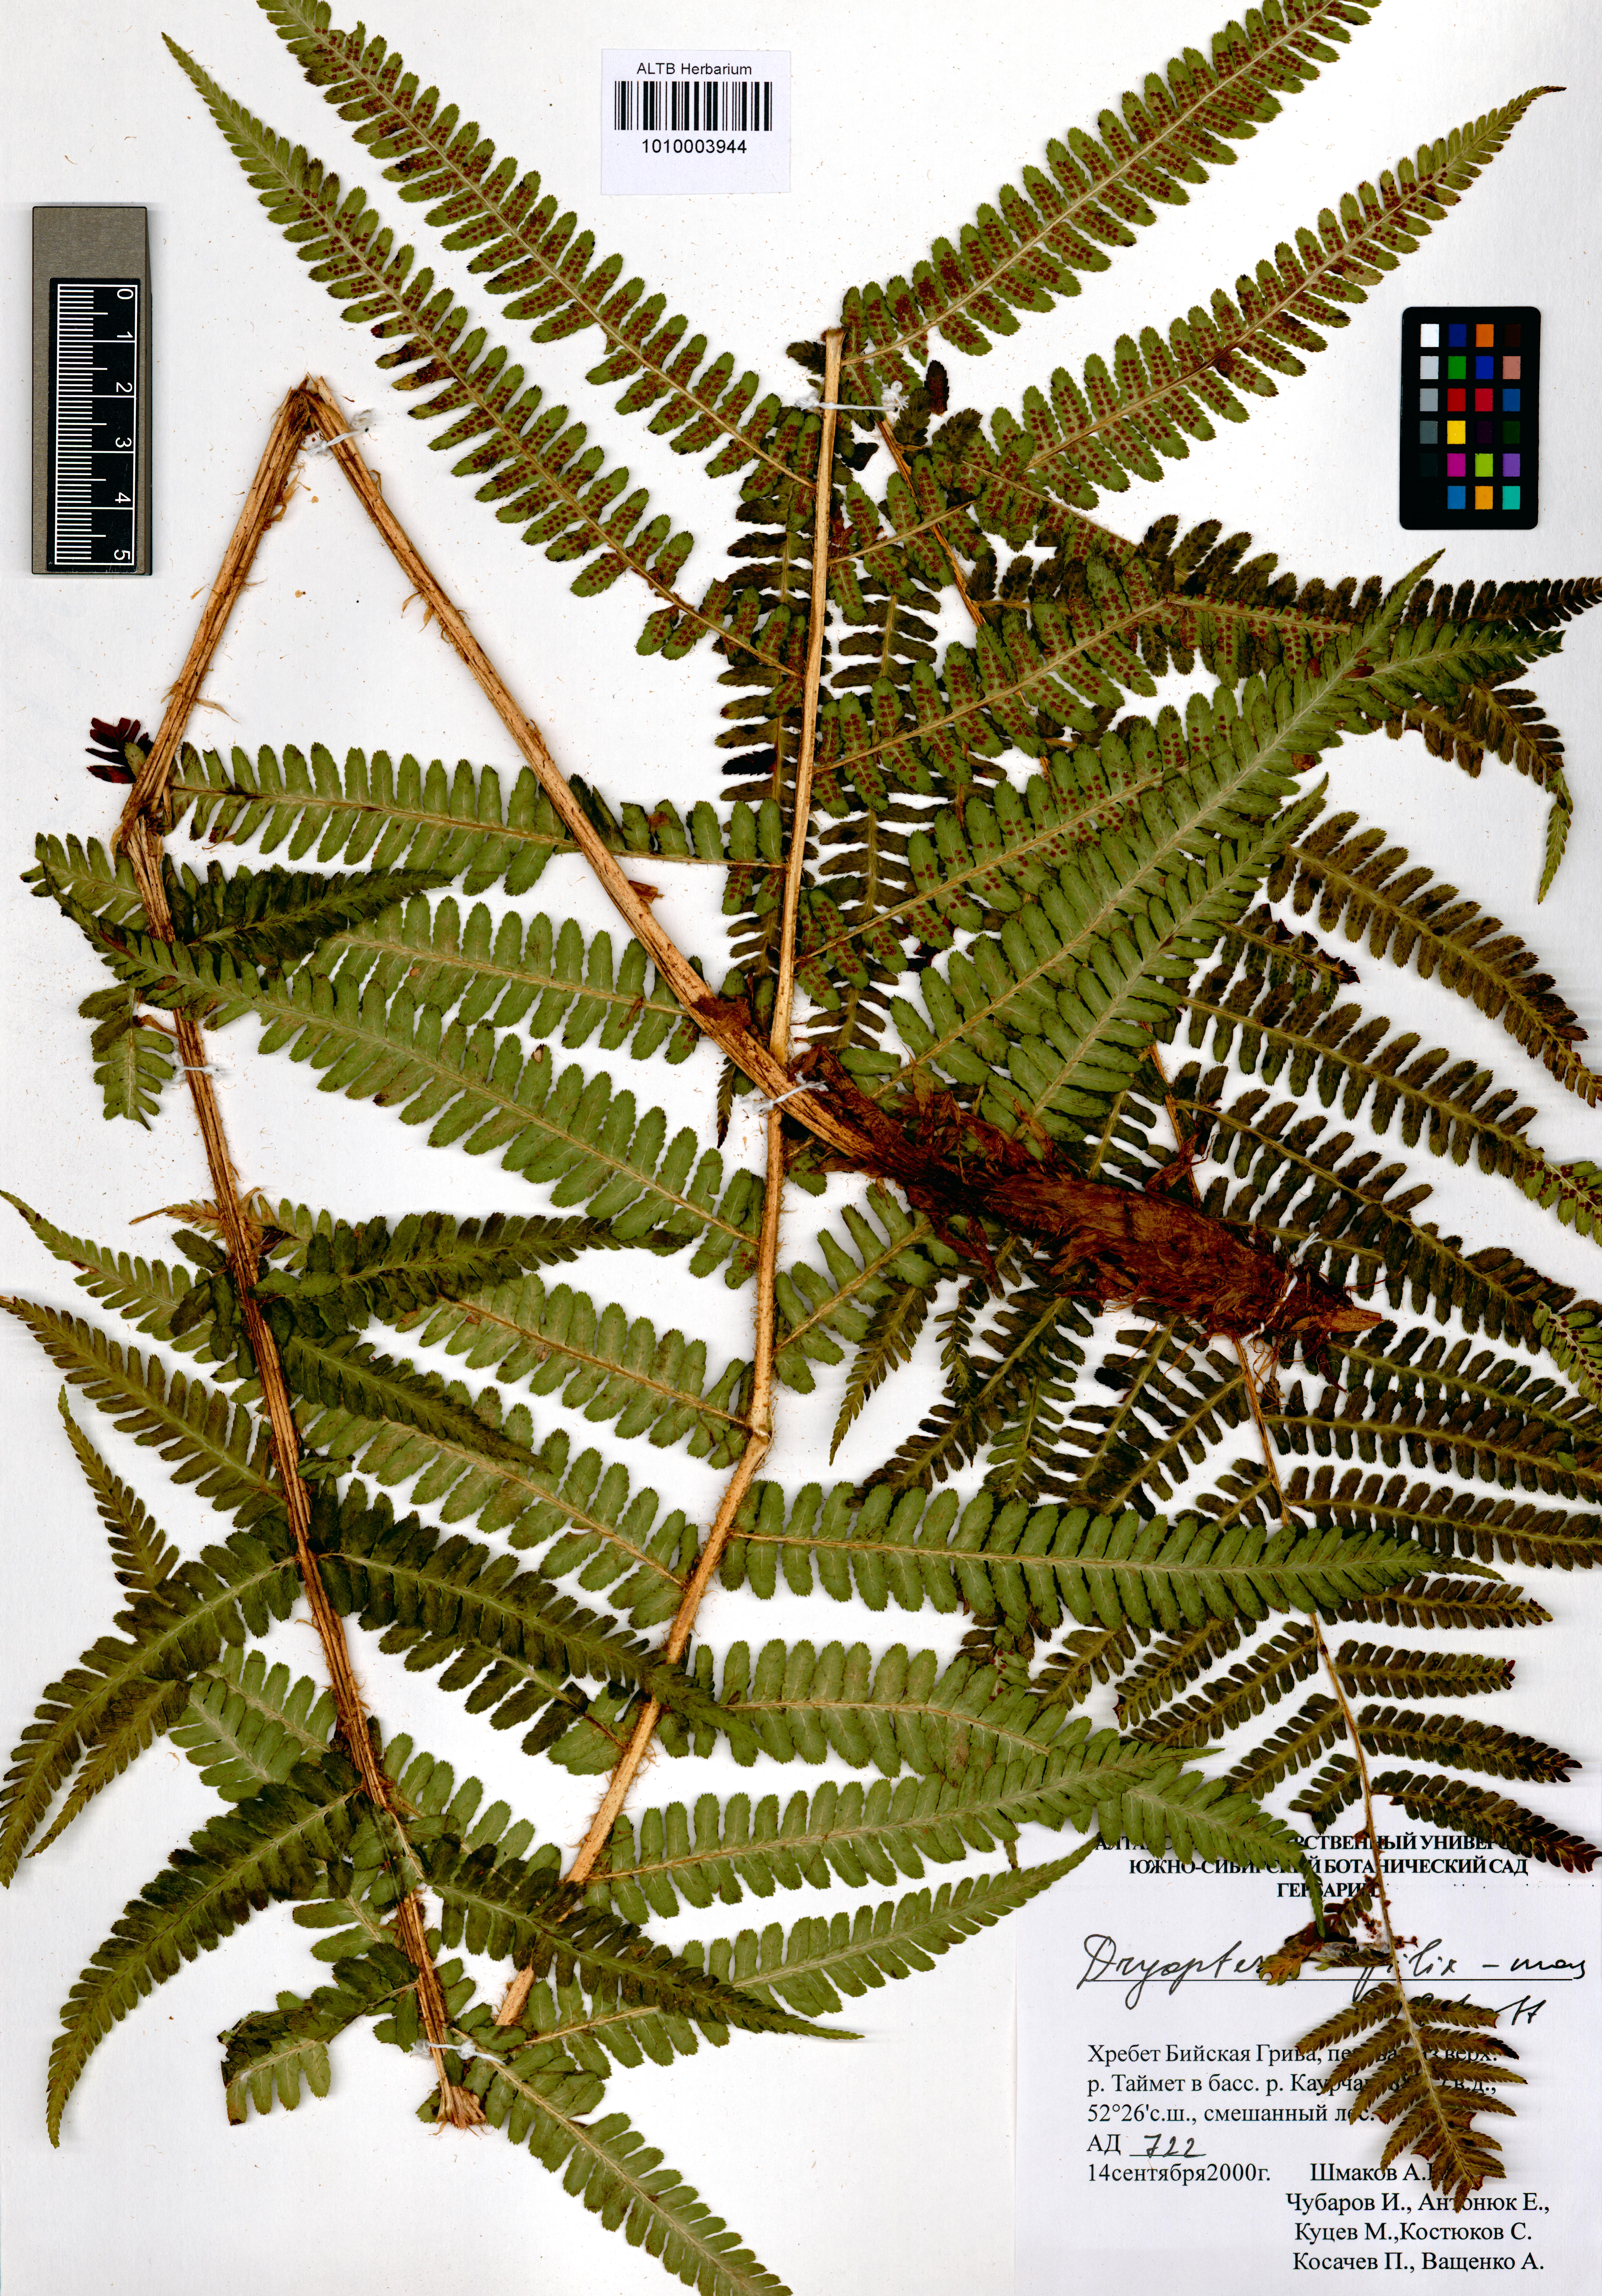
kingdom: Plantae
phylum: Tracheophyta
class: Polypodiopsida
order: Polypodiales
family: Dryopteridaceae
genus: Dryopteris
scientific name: Dryopteris filix-mas
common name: Male fern
